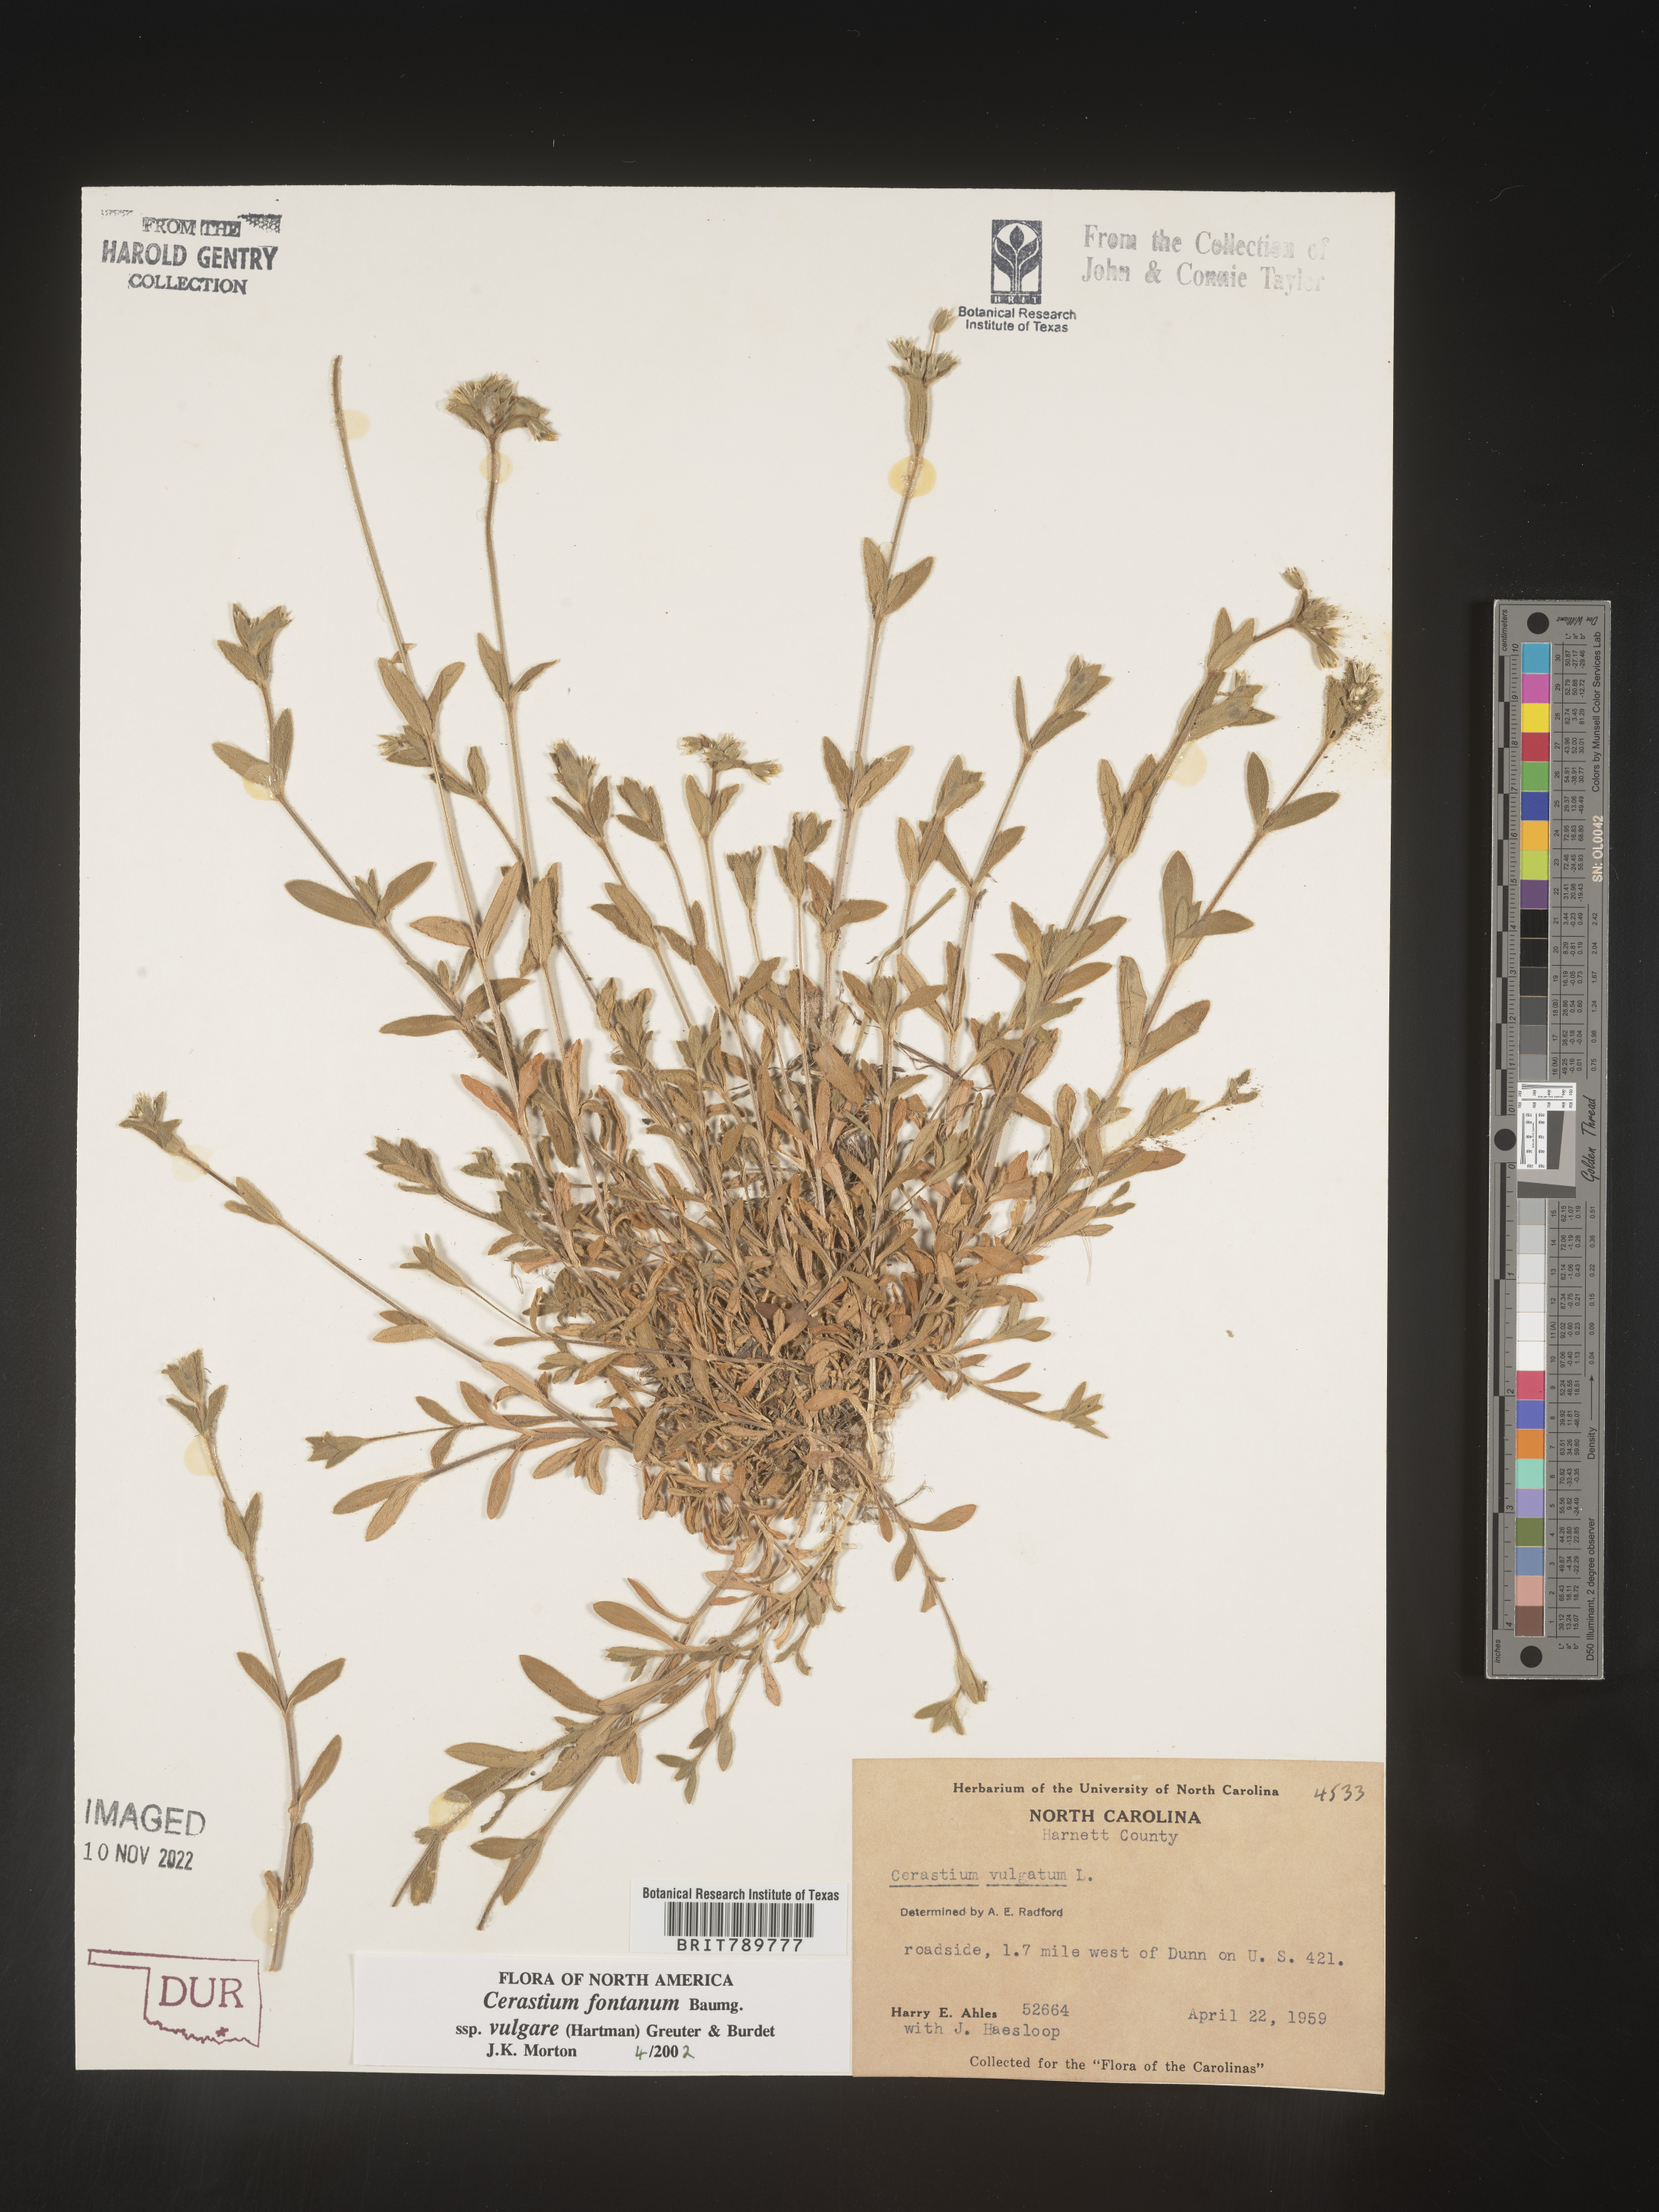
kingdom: Plantae
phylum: Tracheophyta
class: Magnoliopsida
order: Caryophyllales
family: Caryophyllaceae
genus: Cerastium
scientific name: Cerastium fontanum
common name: Common mouse-ear
